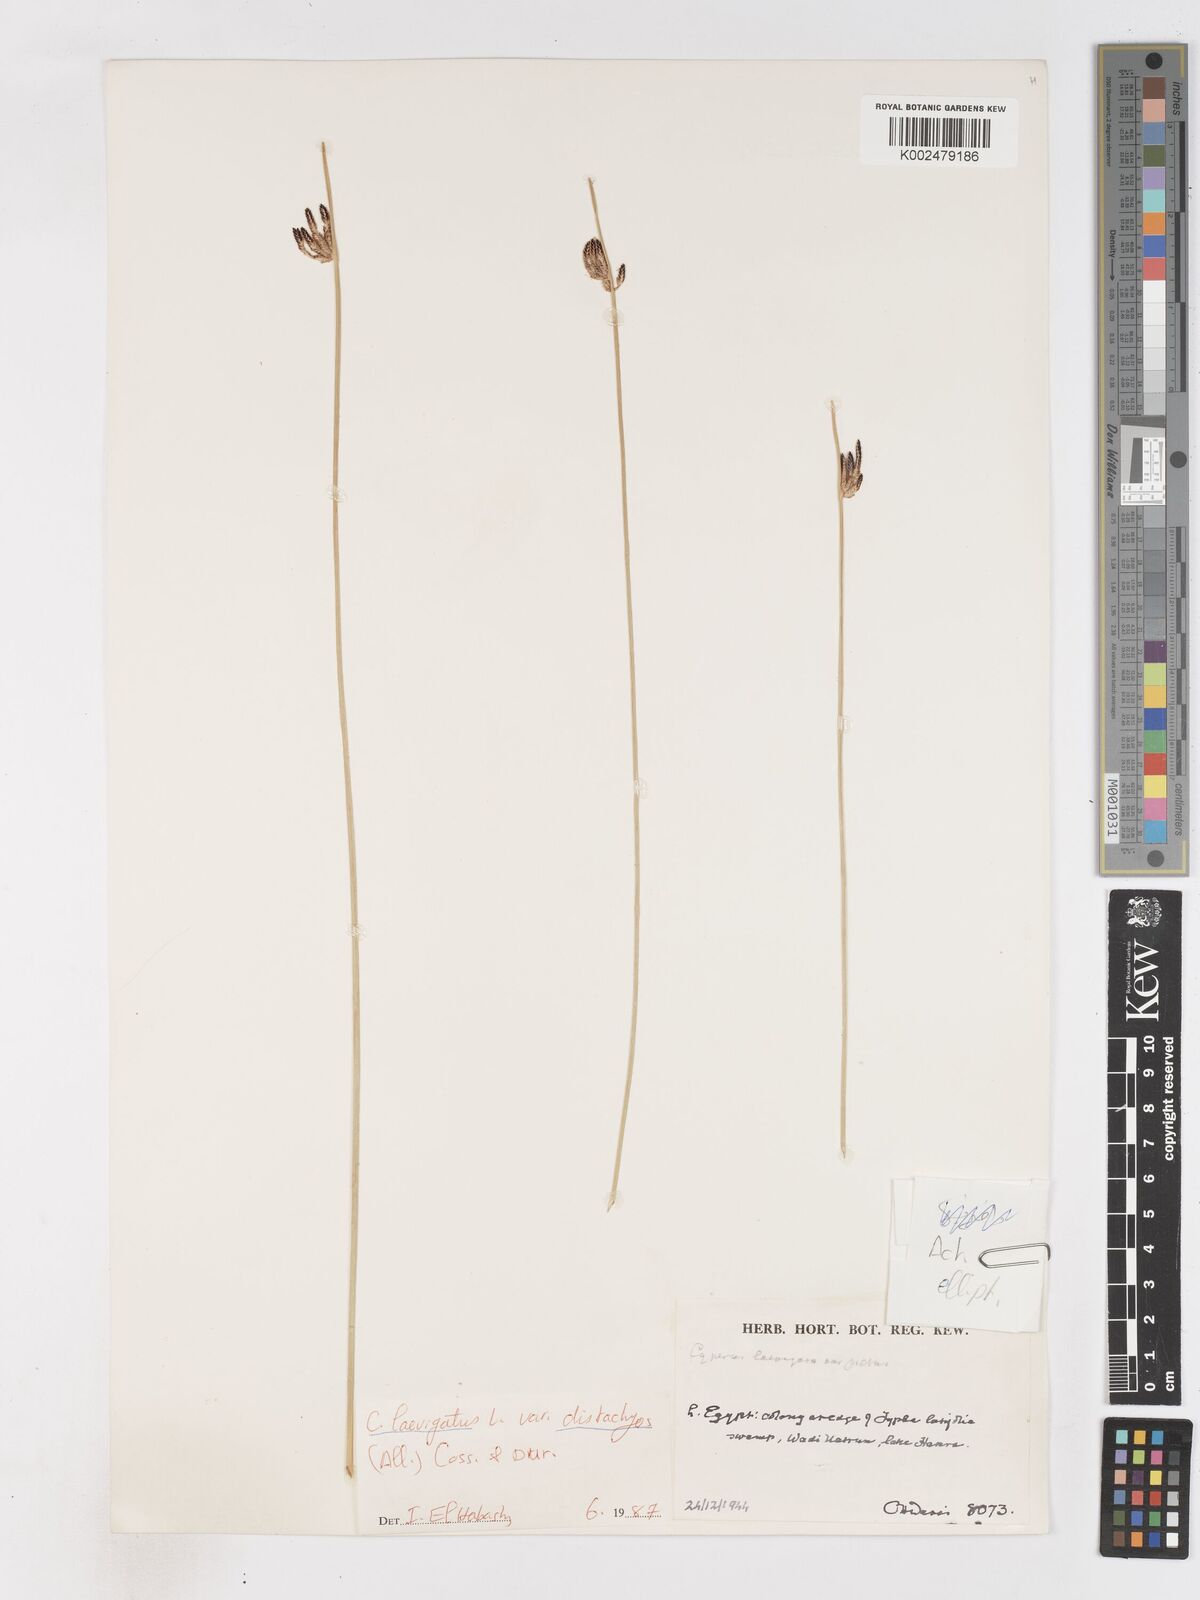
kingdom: Plantae
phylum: Tracheophyta
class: Liliopsida
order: Poales
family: Cyperaceae
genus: Cyperus
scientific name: Cyperus laevigatus
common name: Smooth flat sedge
